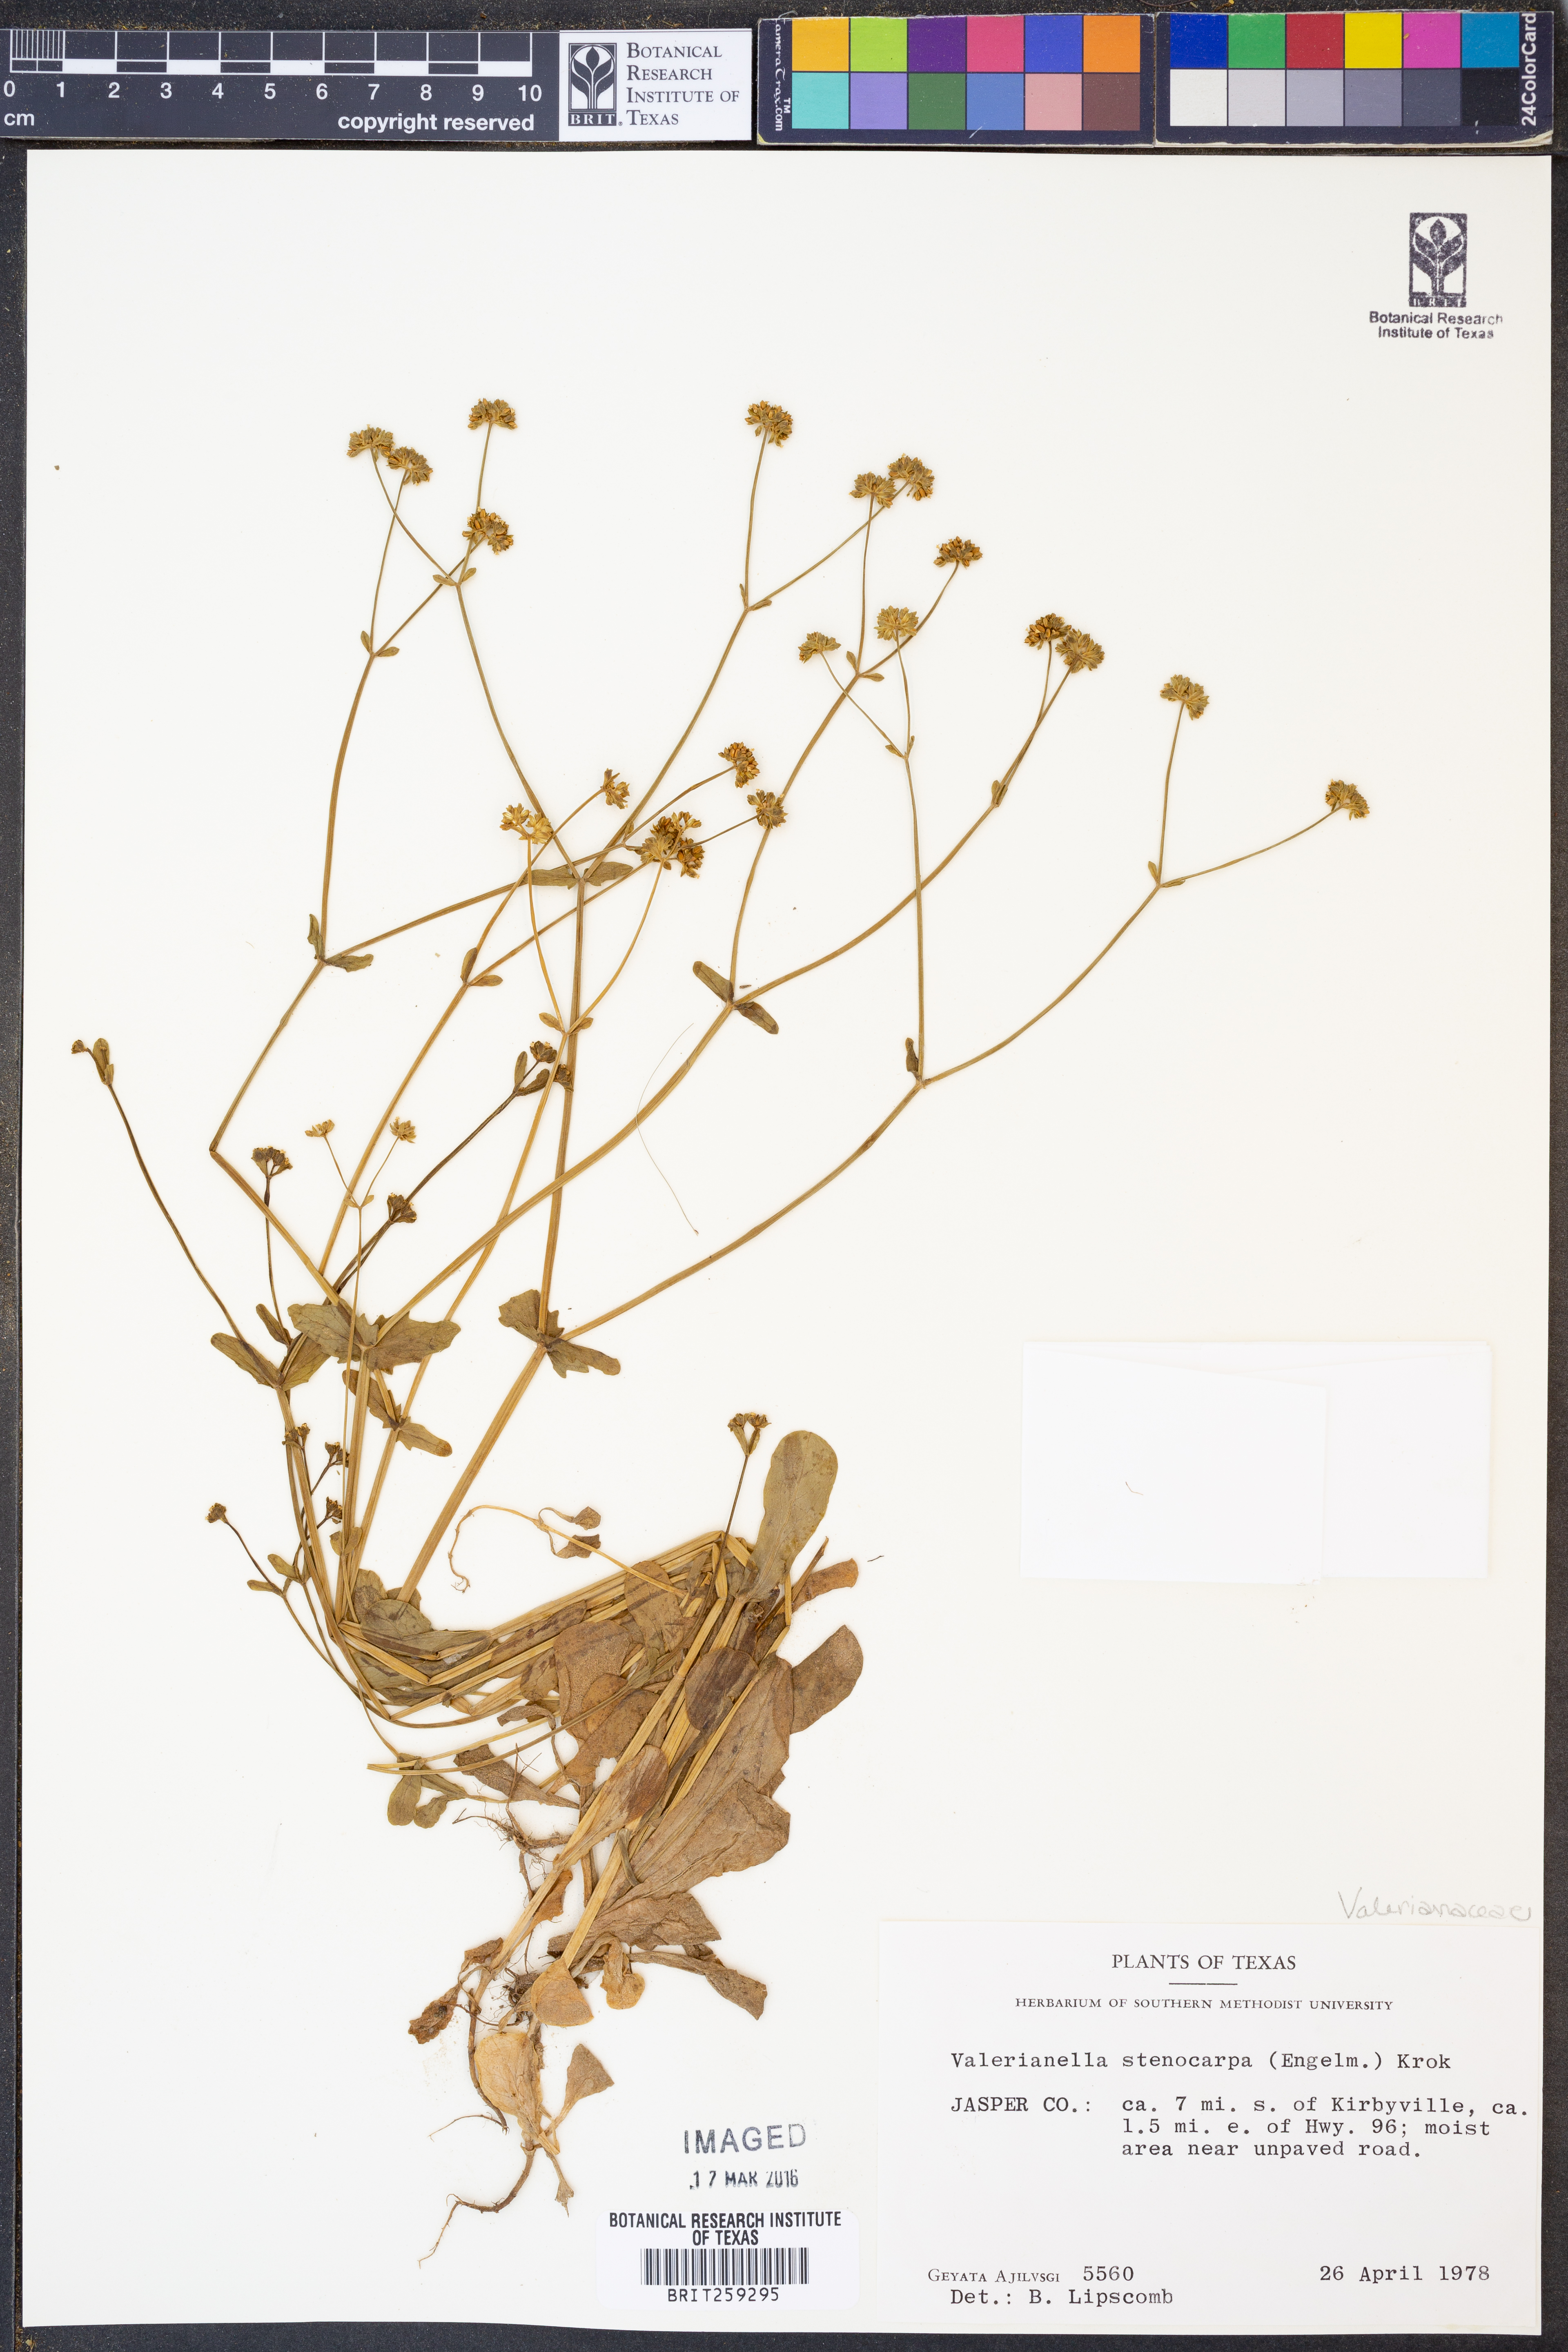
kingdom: Plantae
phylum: Tracheophyta
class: Magnoliopsida
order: Dipsacales
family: Caprifoliaceae
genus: Valerianella
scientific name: Valerianella stenocarpa
